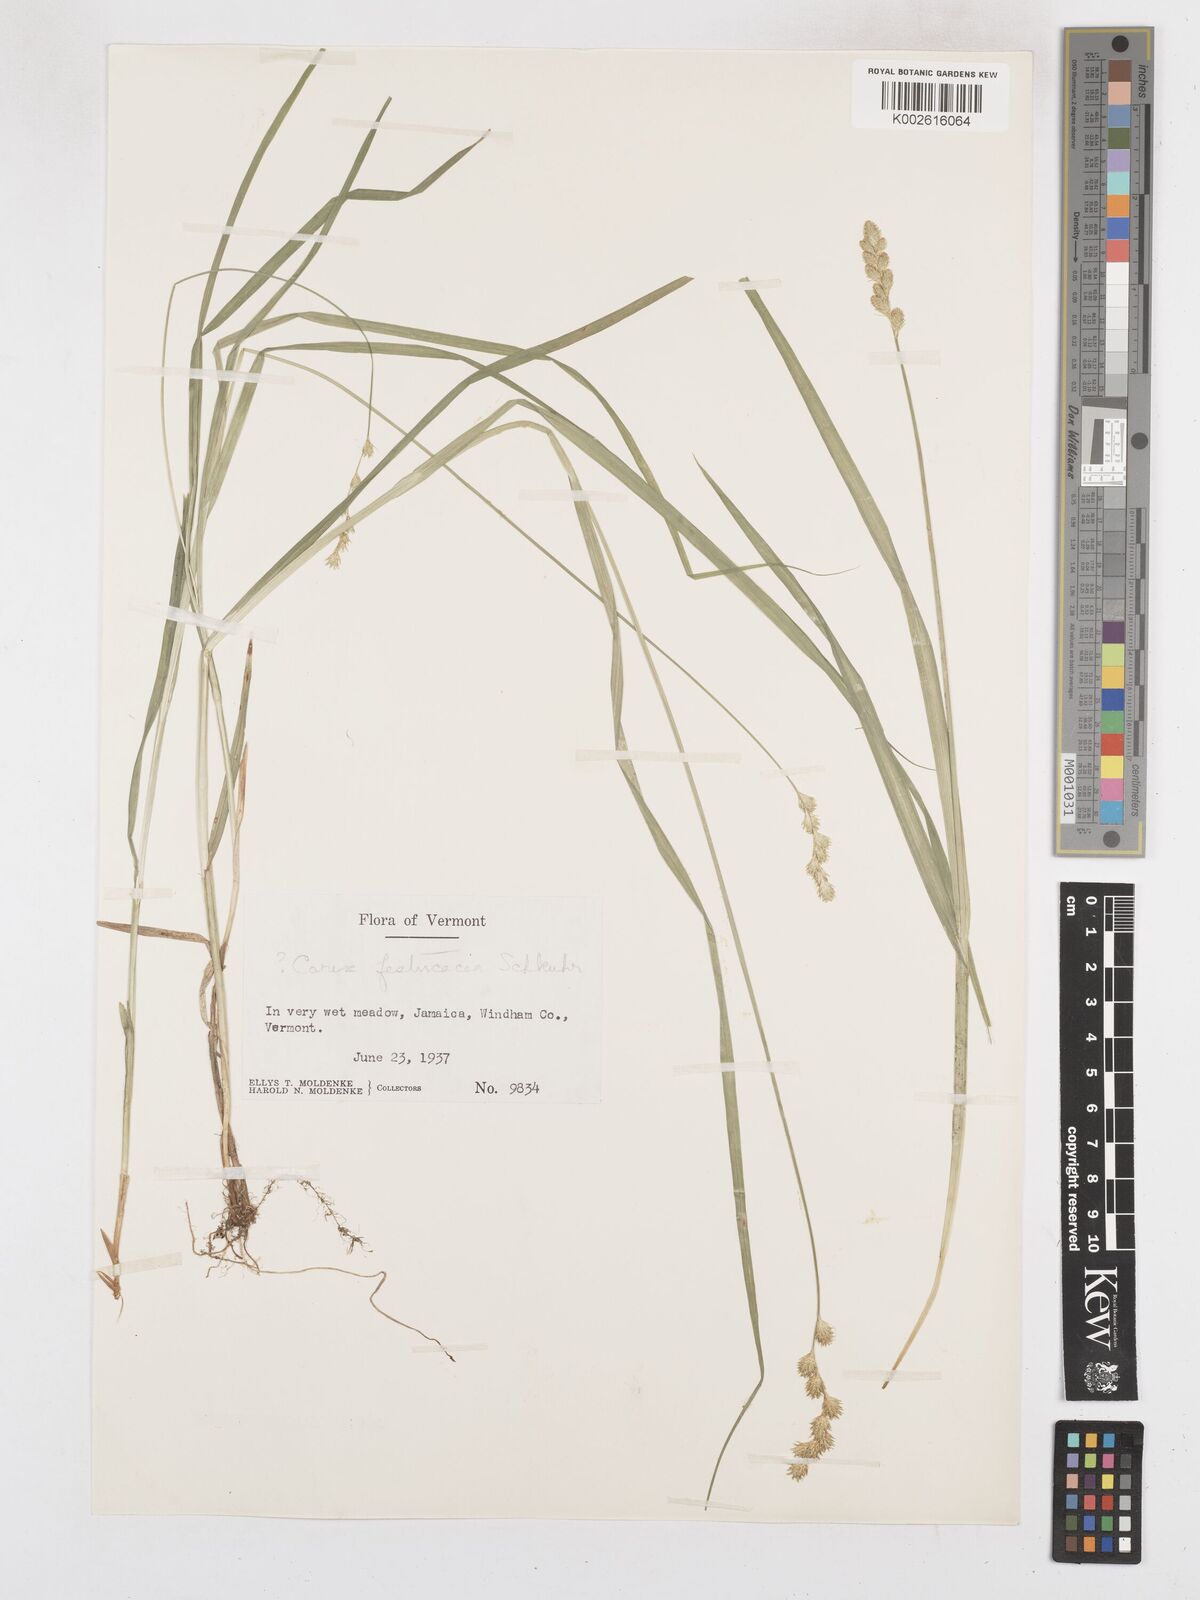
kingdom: Plantae
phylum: Tracheophyta
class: Liliopsida
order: Poales
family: Cyperaceae
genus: Carex
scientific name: Carex festucacea
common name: Fescue oval sedge
